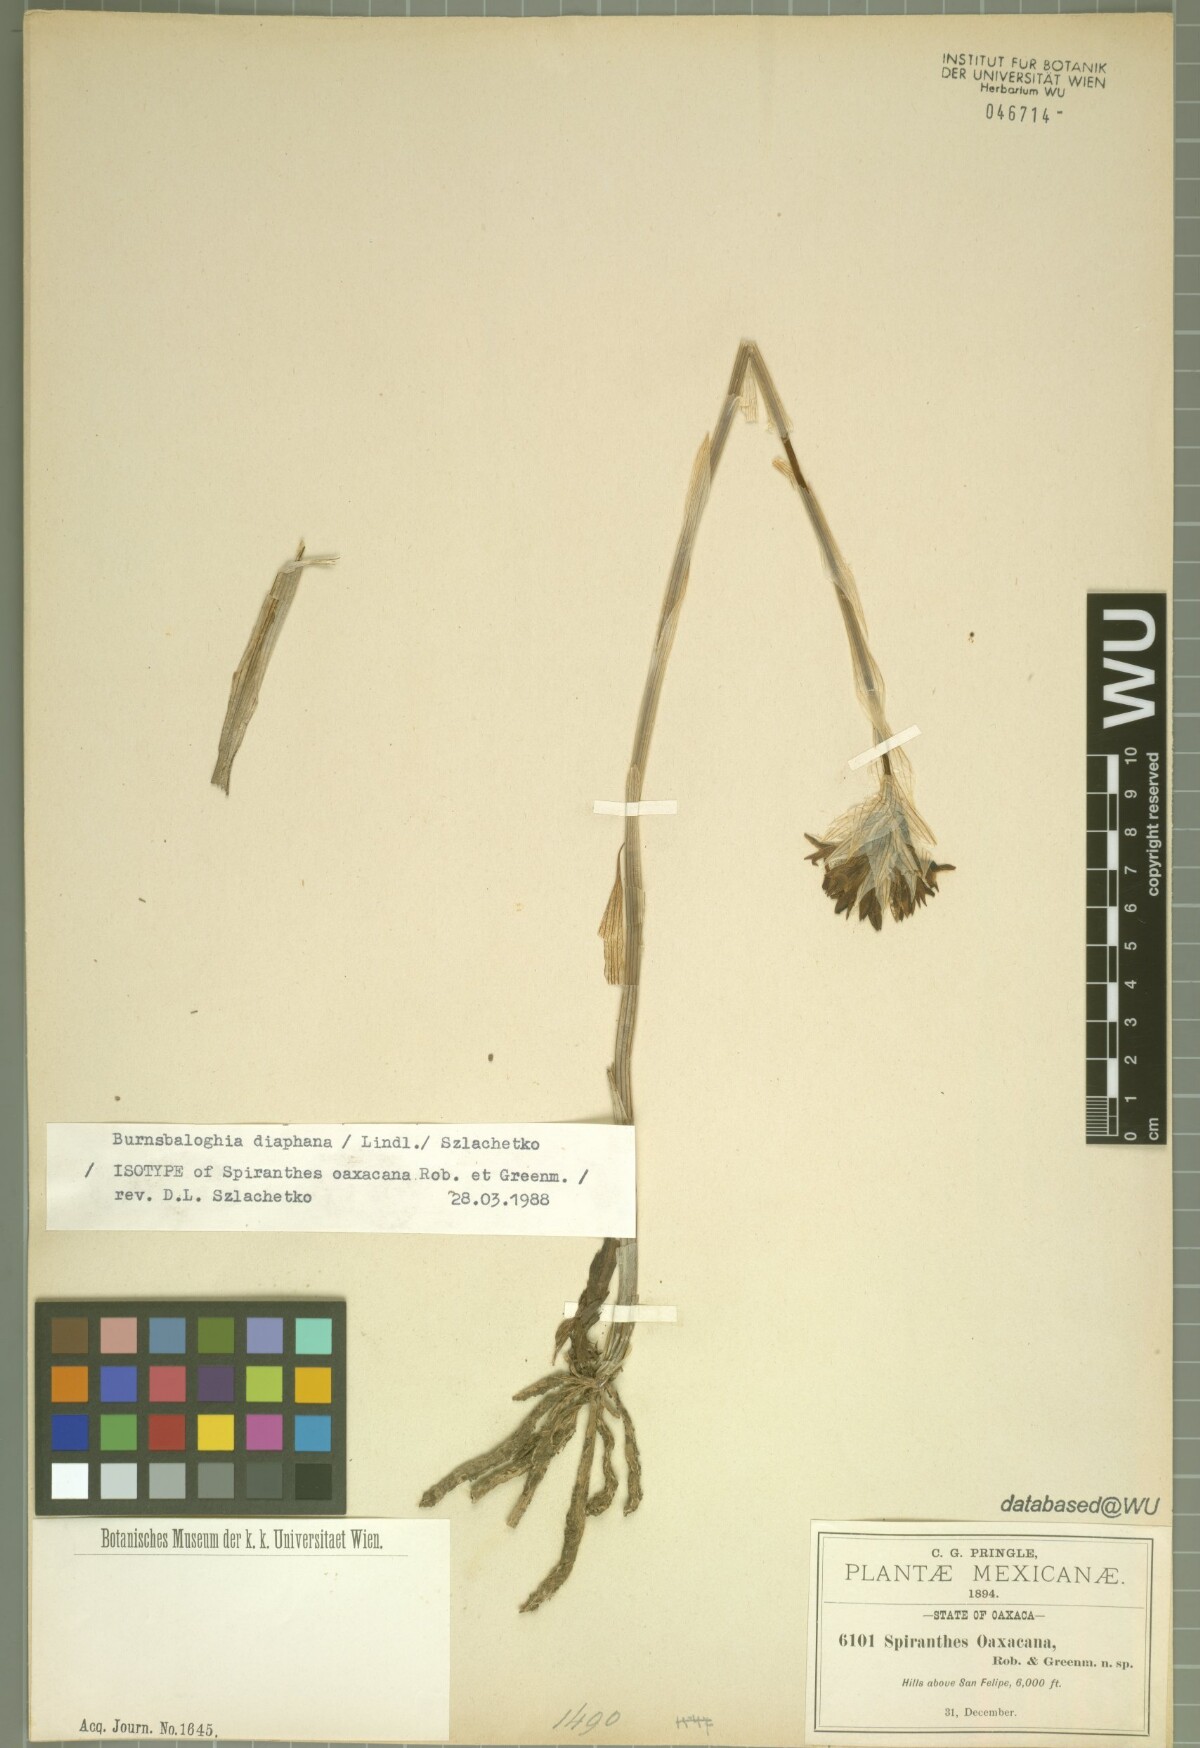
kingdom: Plantae
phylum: Tracheophyta
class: Liliopsida
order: Asparagales
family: Orchidaceae
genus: Deiregyne
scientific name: Deiregyne diaphana
